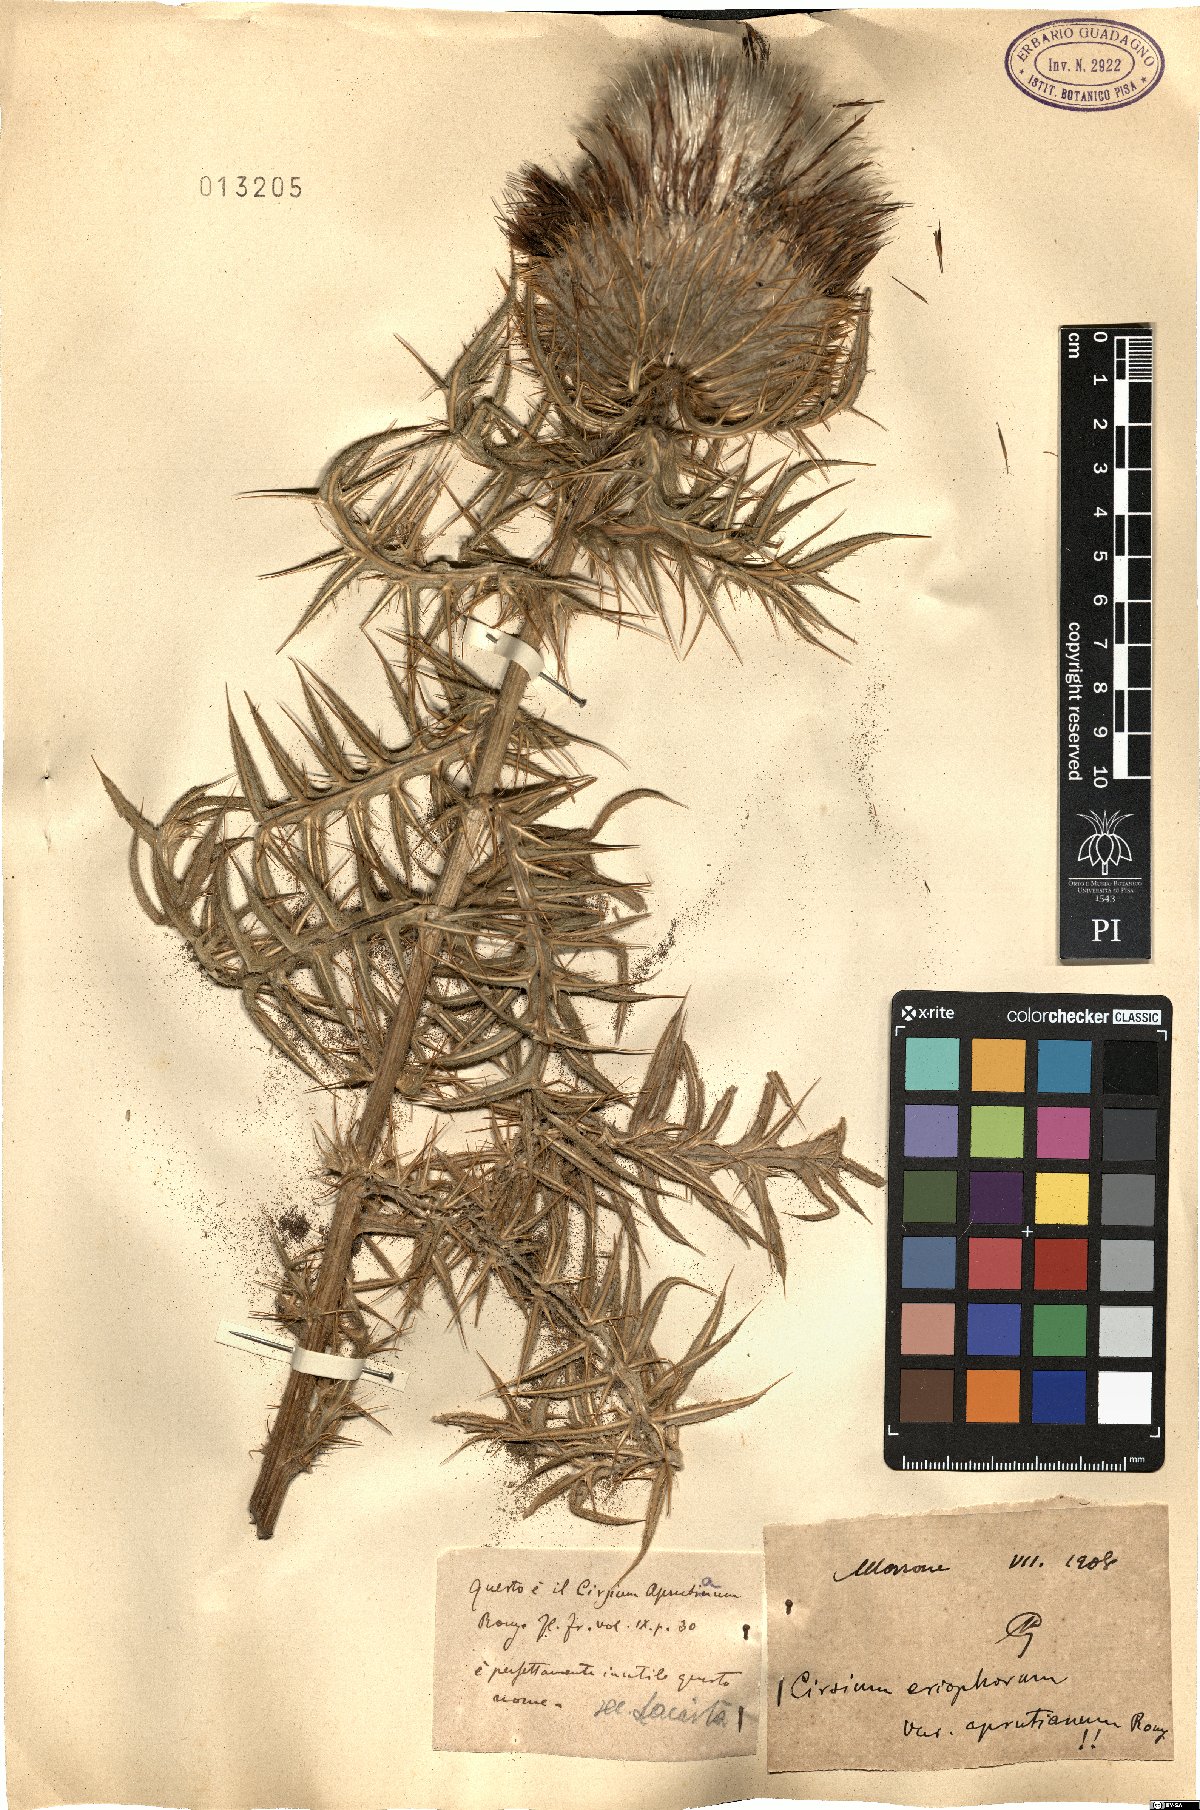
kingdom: Plantae
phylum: Tracheophyta
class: Magnoliopsida
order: Asterales
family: Asteraceae
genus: Lophiolepis
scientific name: Lophiolepis eriophora
